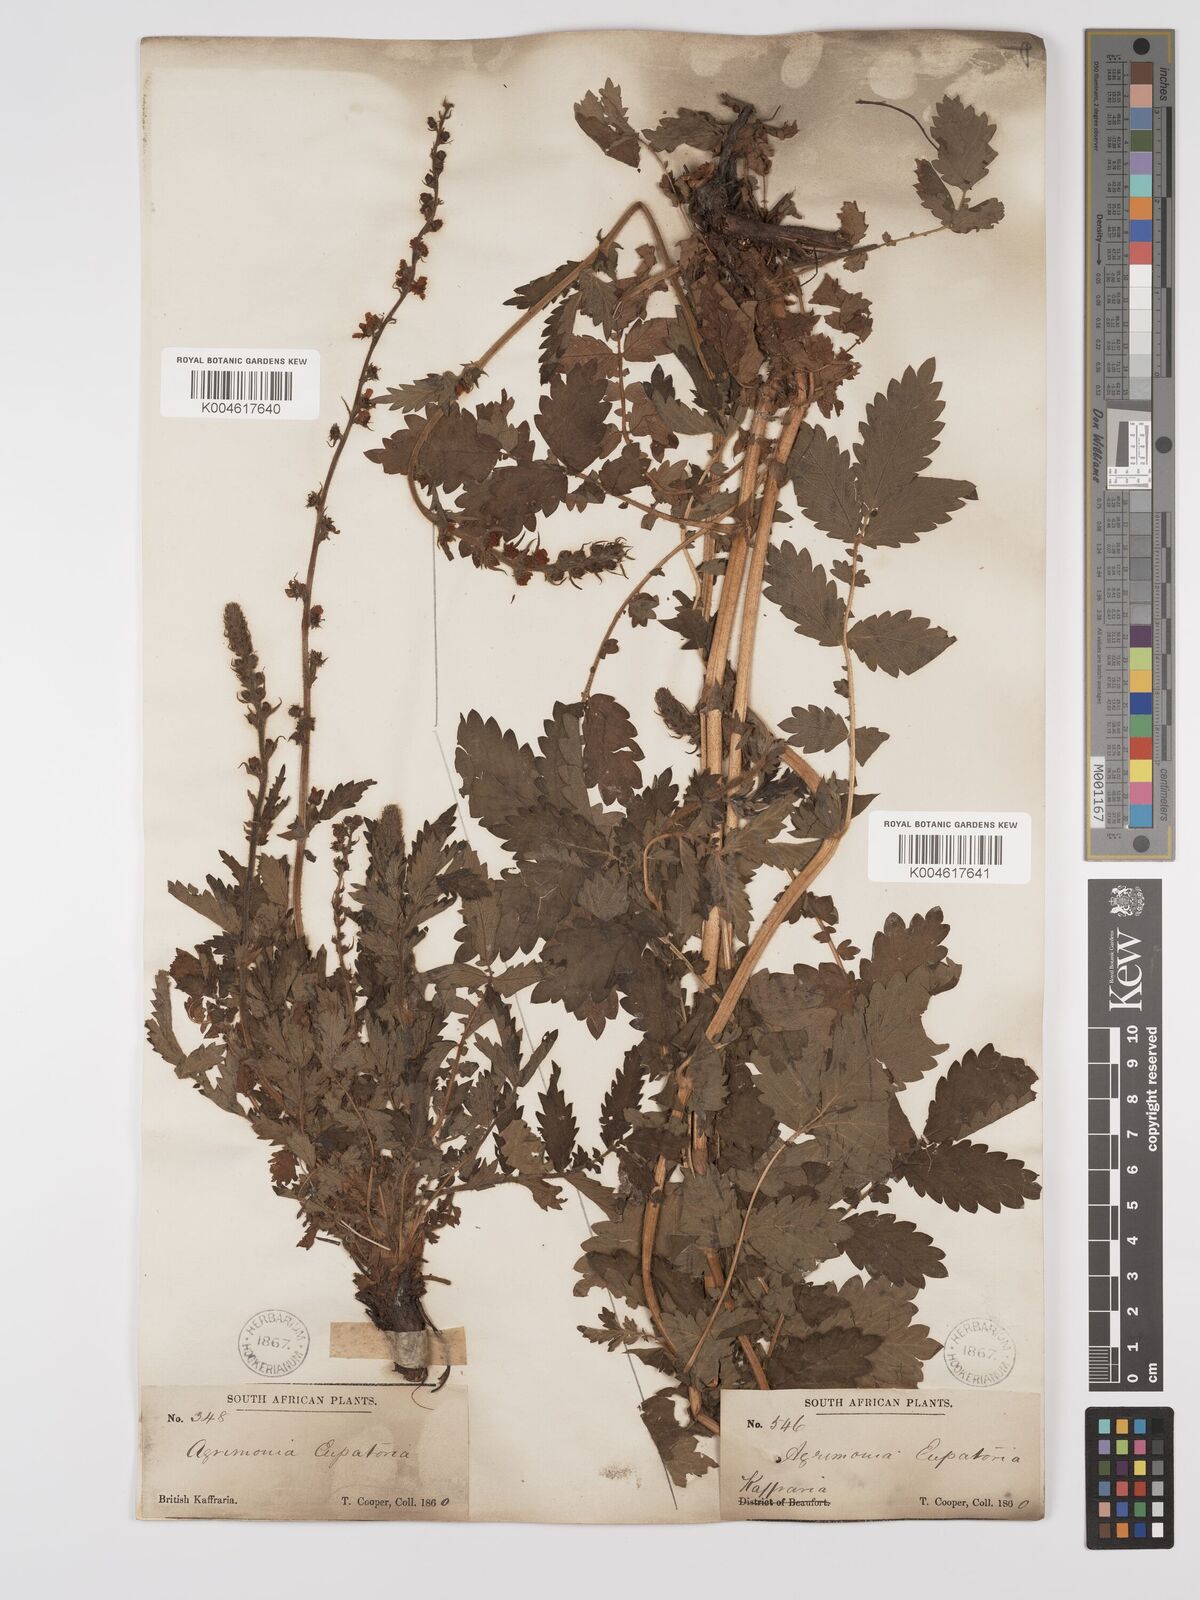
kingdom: Plantae
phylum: Tracheophyta
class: Magnoliopsida
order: Rosales
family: Rosaceae
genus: Agrimonia
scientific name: Agrimonia eupatoria
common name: Agrimony
